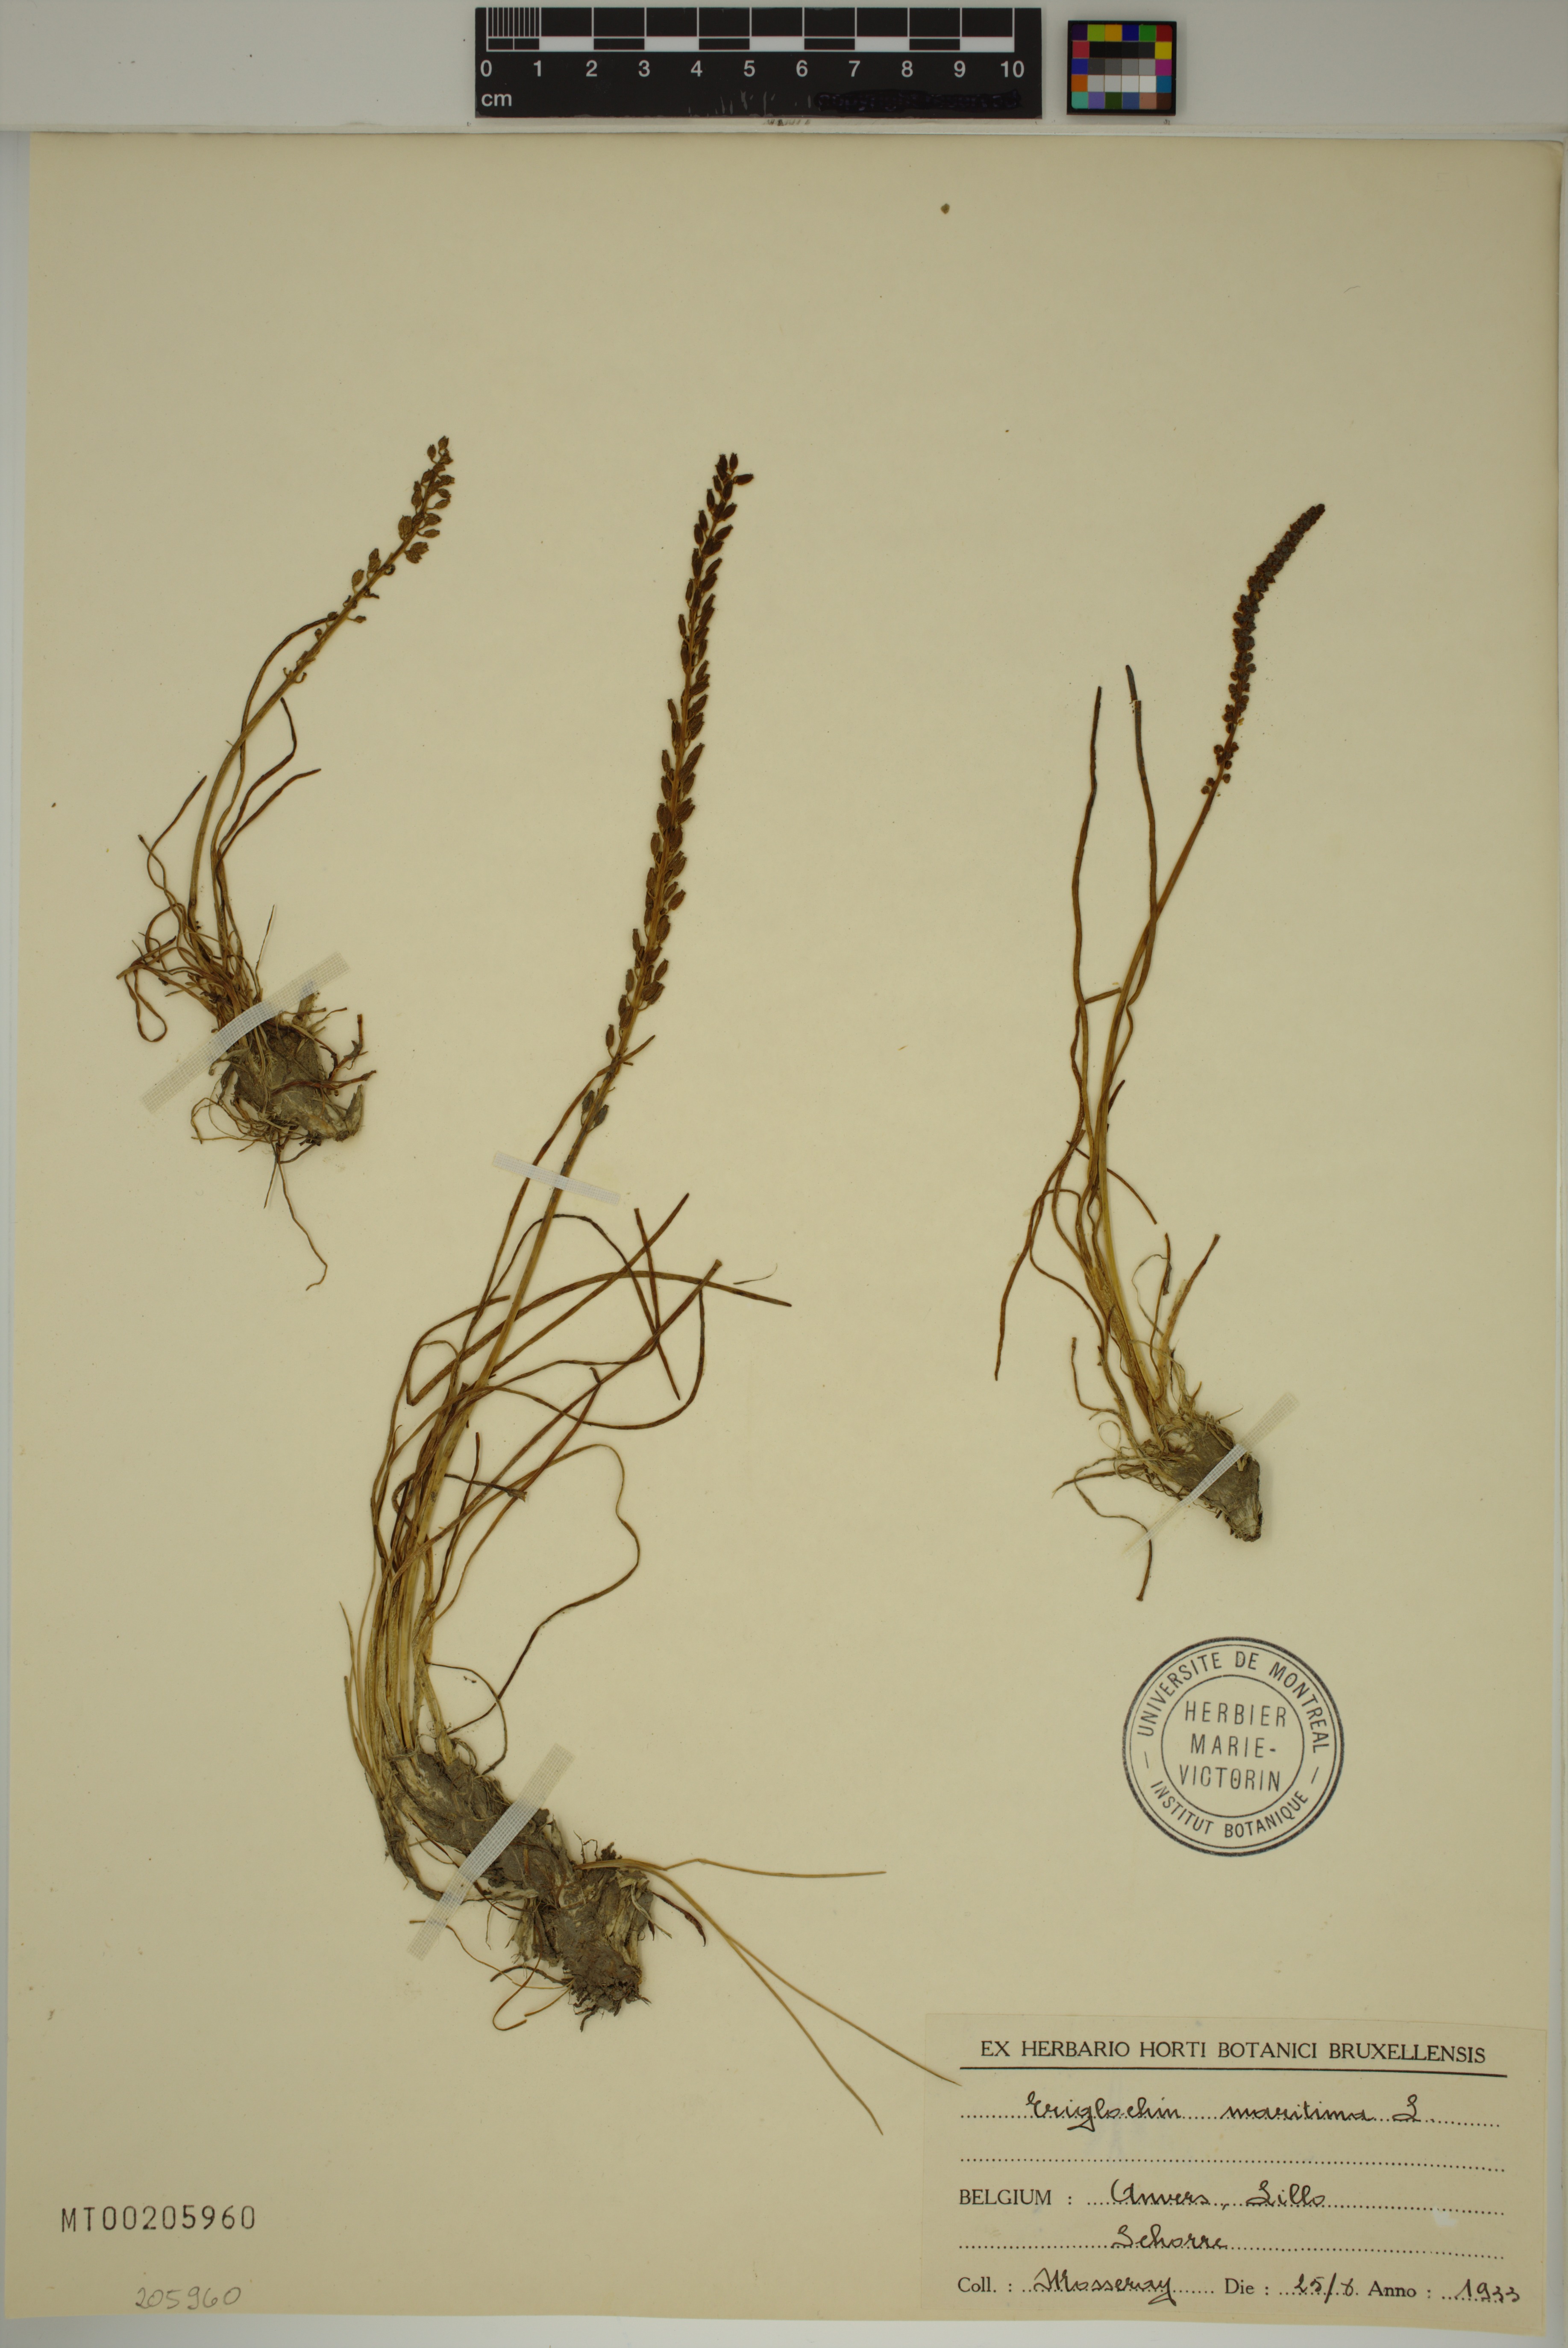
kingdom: Plantae
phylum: Tracheophyta
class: Liliopsida
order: Alismatales
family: Juncaginaceae
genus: Triglochin
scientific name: Triglochin maritima
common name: Sea arrowgrass
